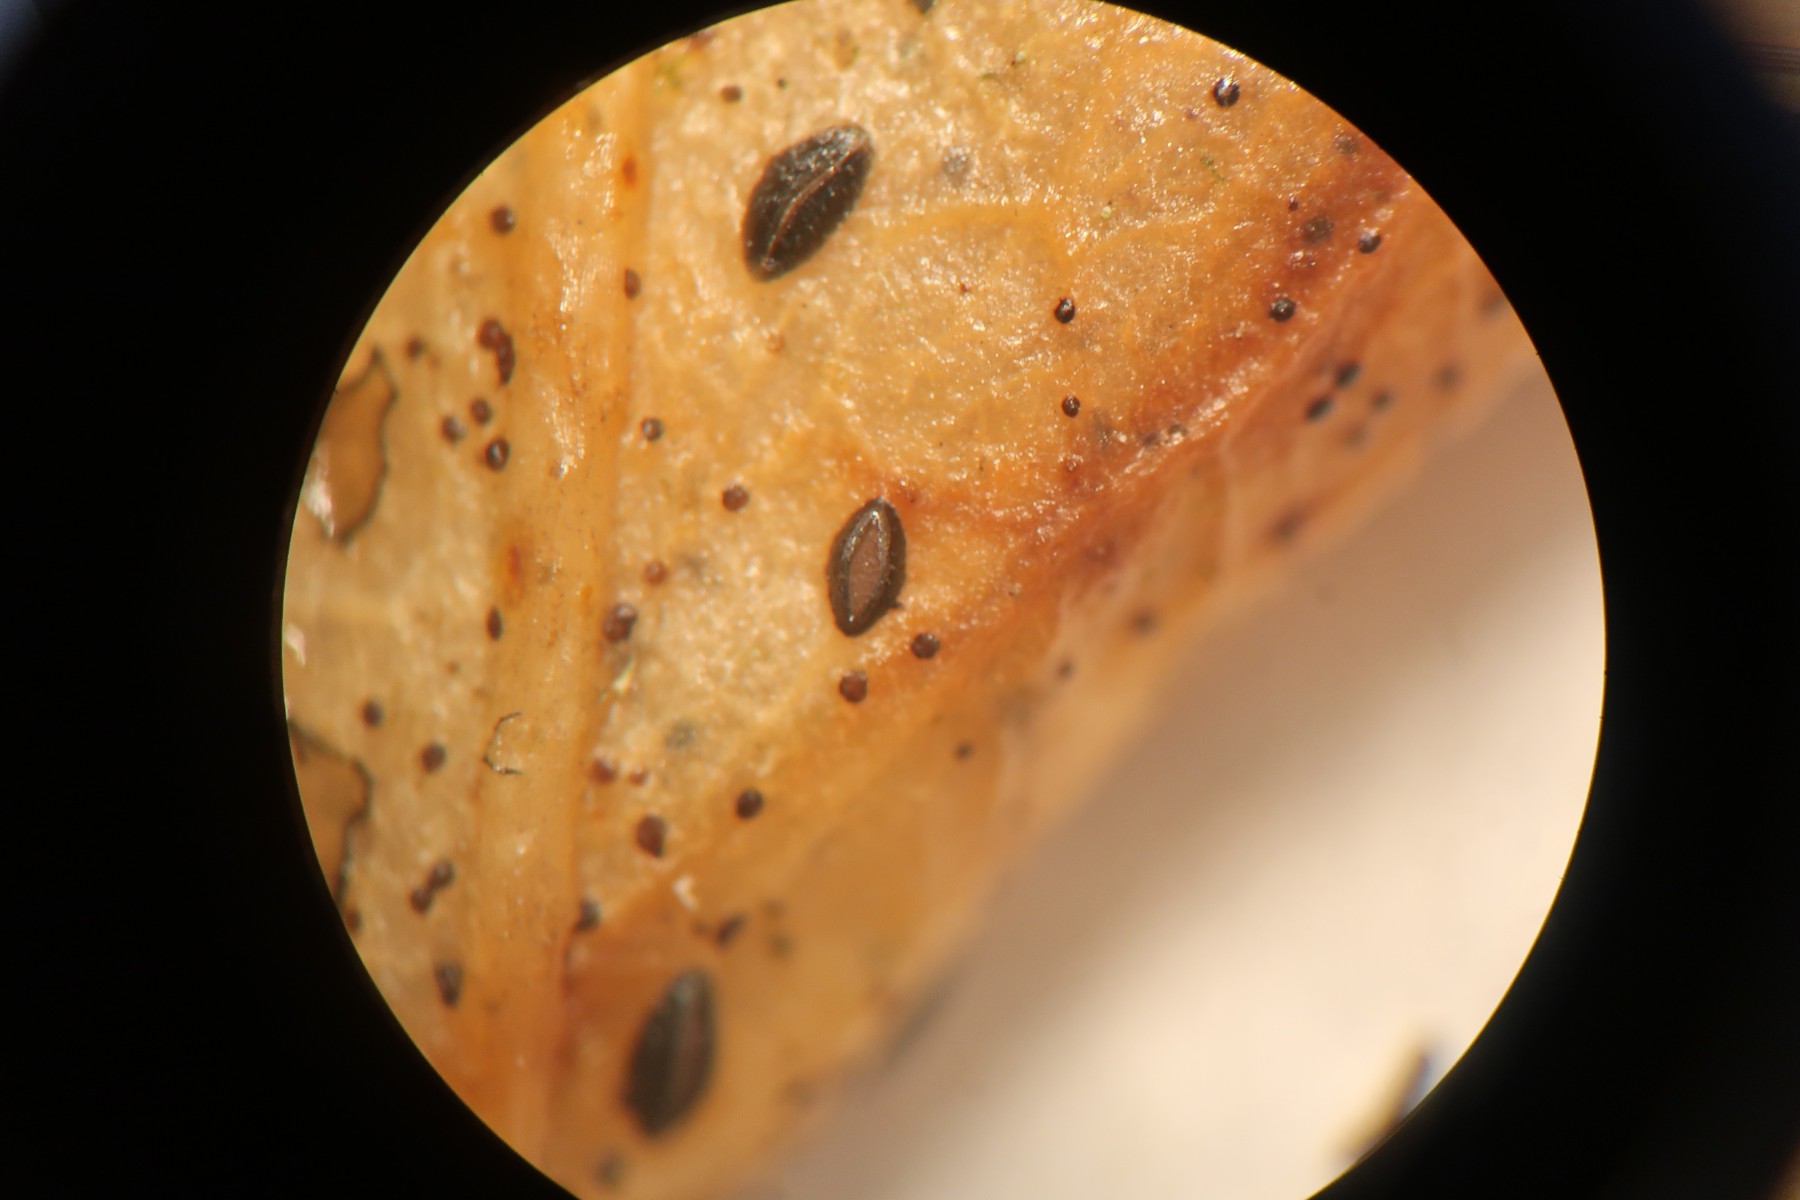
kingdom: Fungi
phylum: Ascomycota
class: Leotiomycetes
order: Rhytismatales
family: Rhytismataceae
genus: Hypoderma
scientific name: Hypoderma hederae
